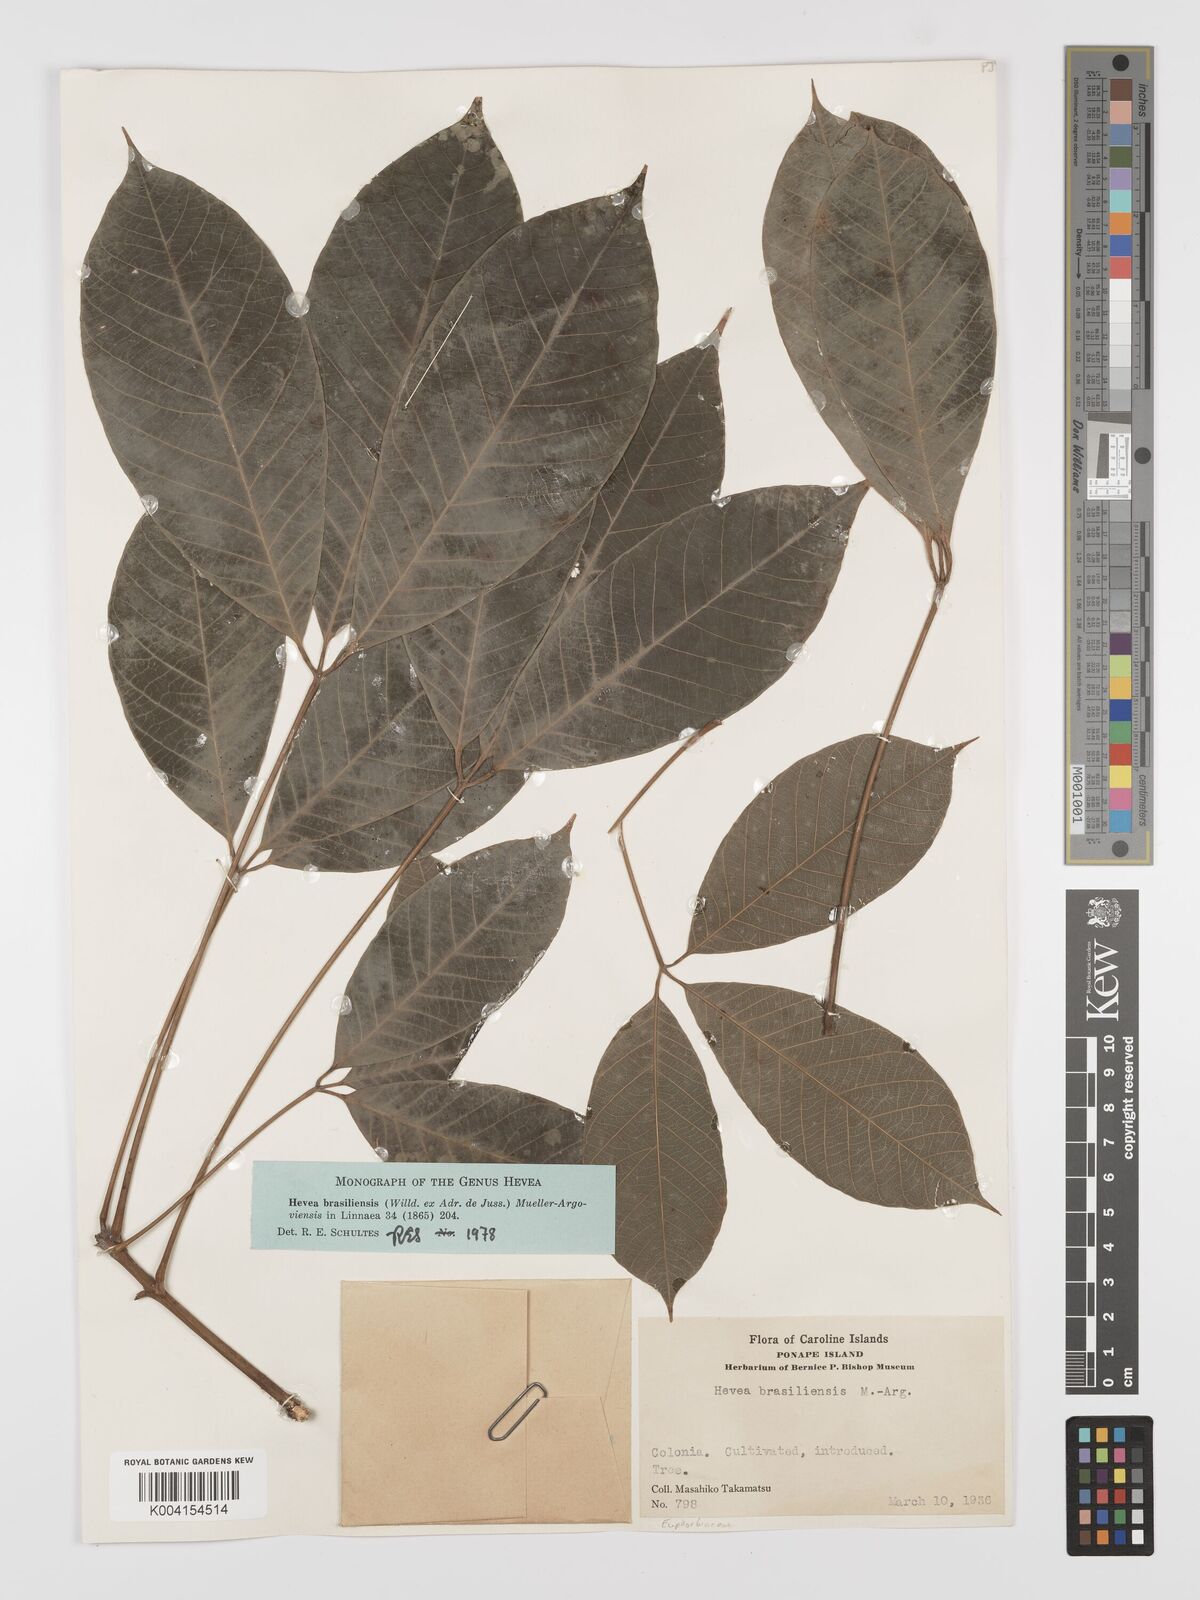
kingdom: Plantae
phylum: Tracheophyta
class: Magnoliopsida
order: Malpighiales
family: Euphorbiaceae
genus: Hevea
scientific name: Hevea brasiliensis
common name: Natural rubber
